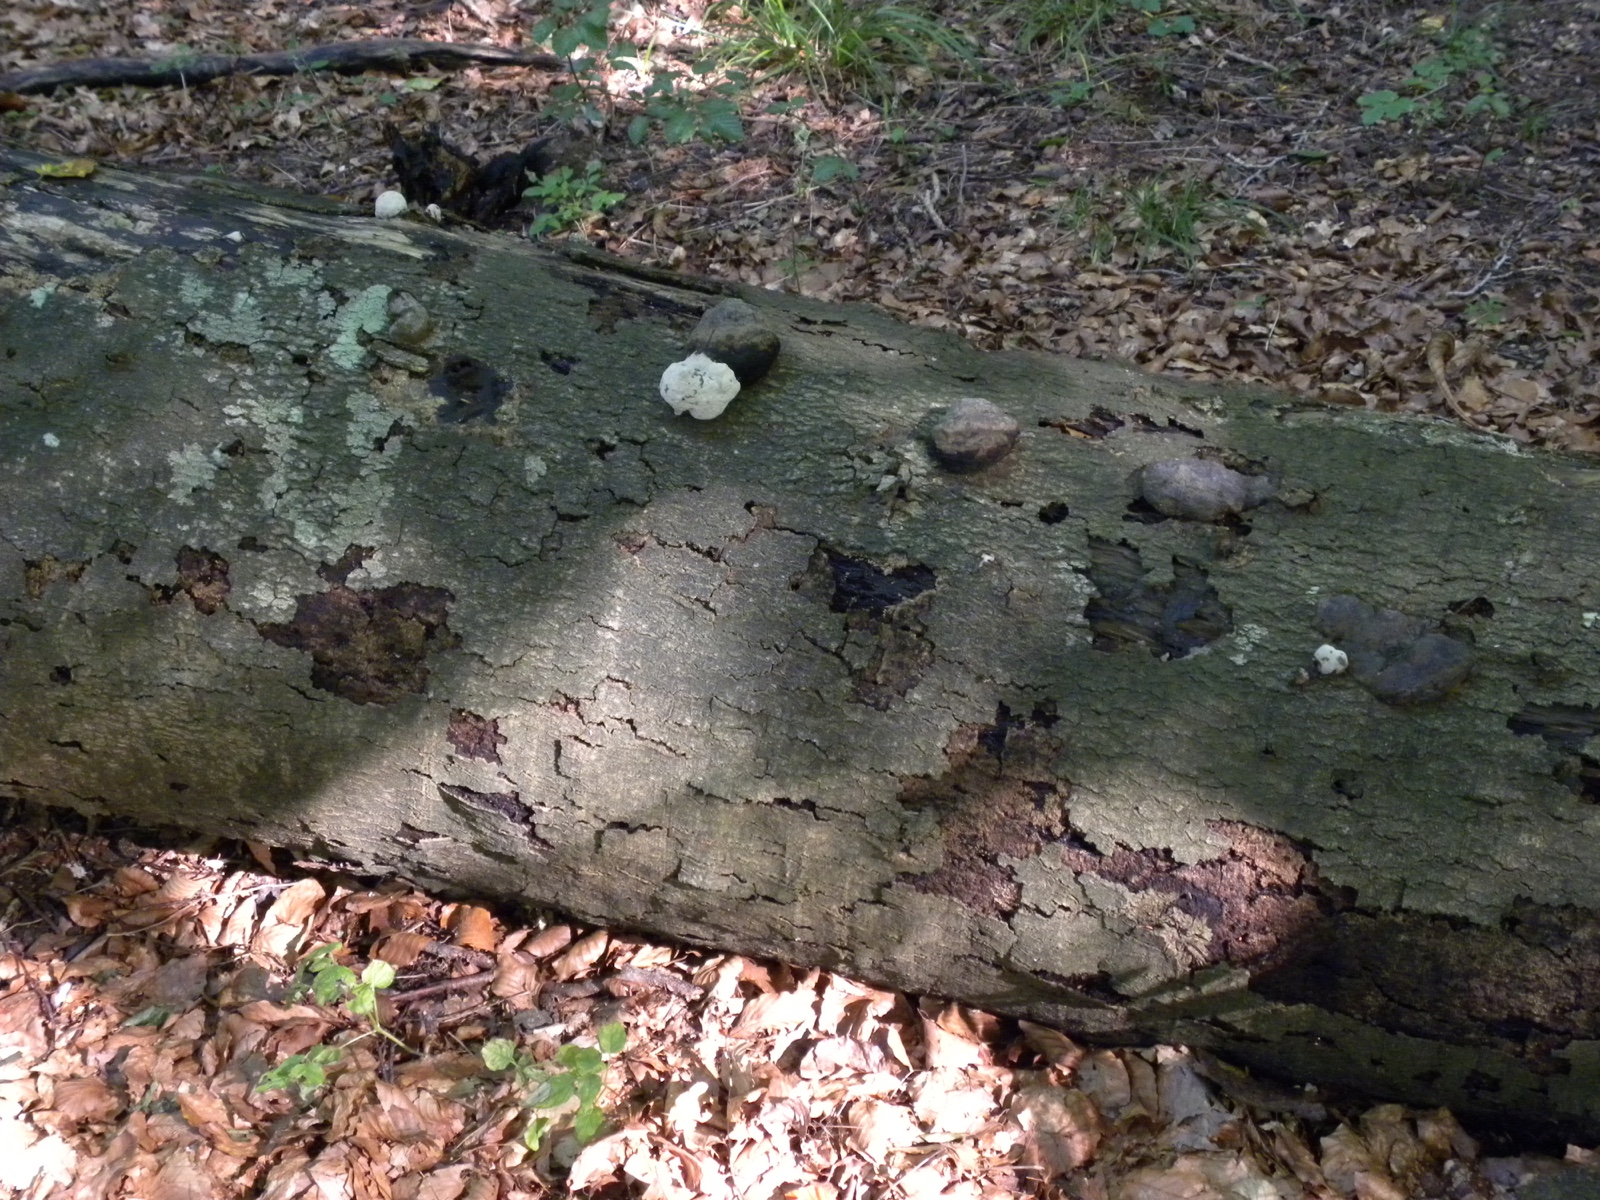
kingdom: Fungi
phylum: Basidiomycota
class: Agaricomycetes
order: Polyporales
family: Polyporaceae
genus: Fomes
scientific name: Fomes fomentarius
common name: tøndersvamp
